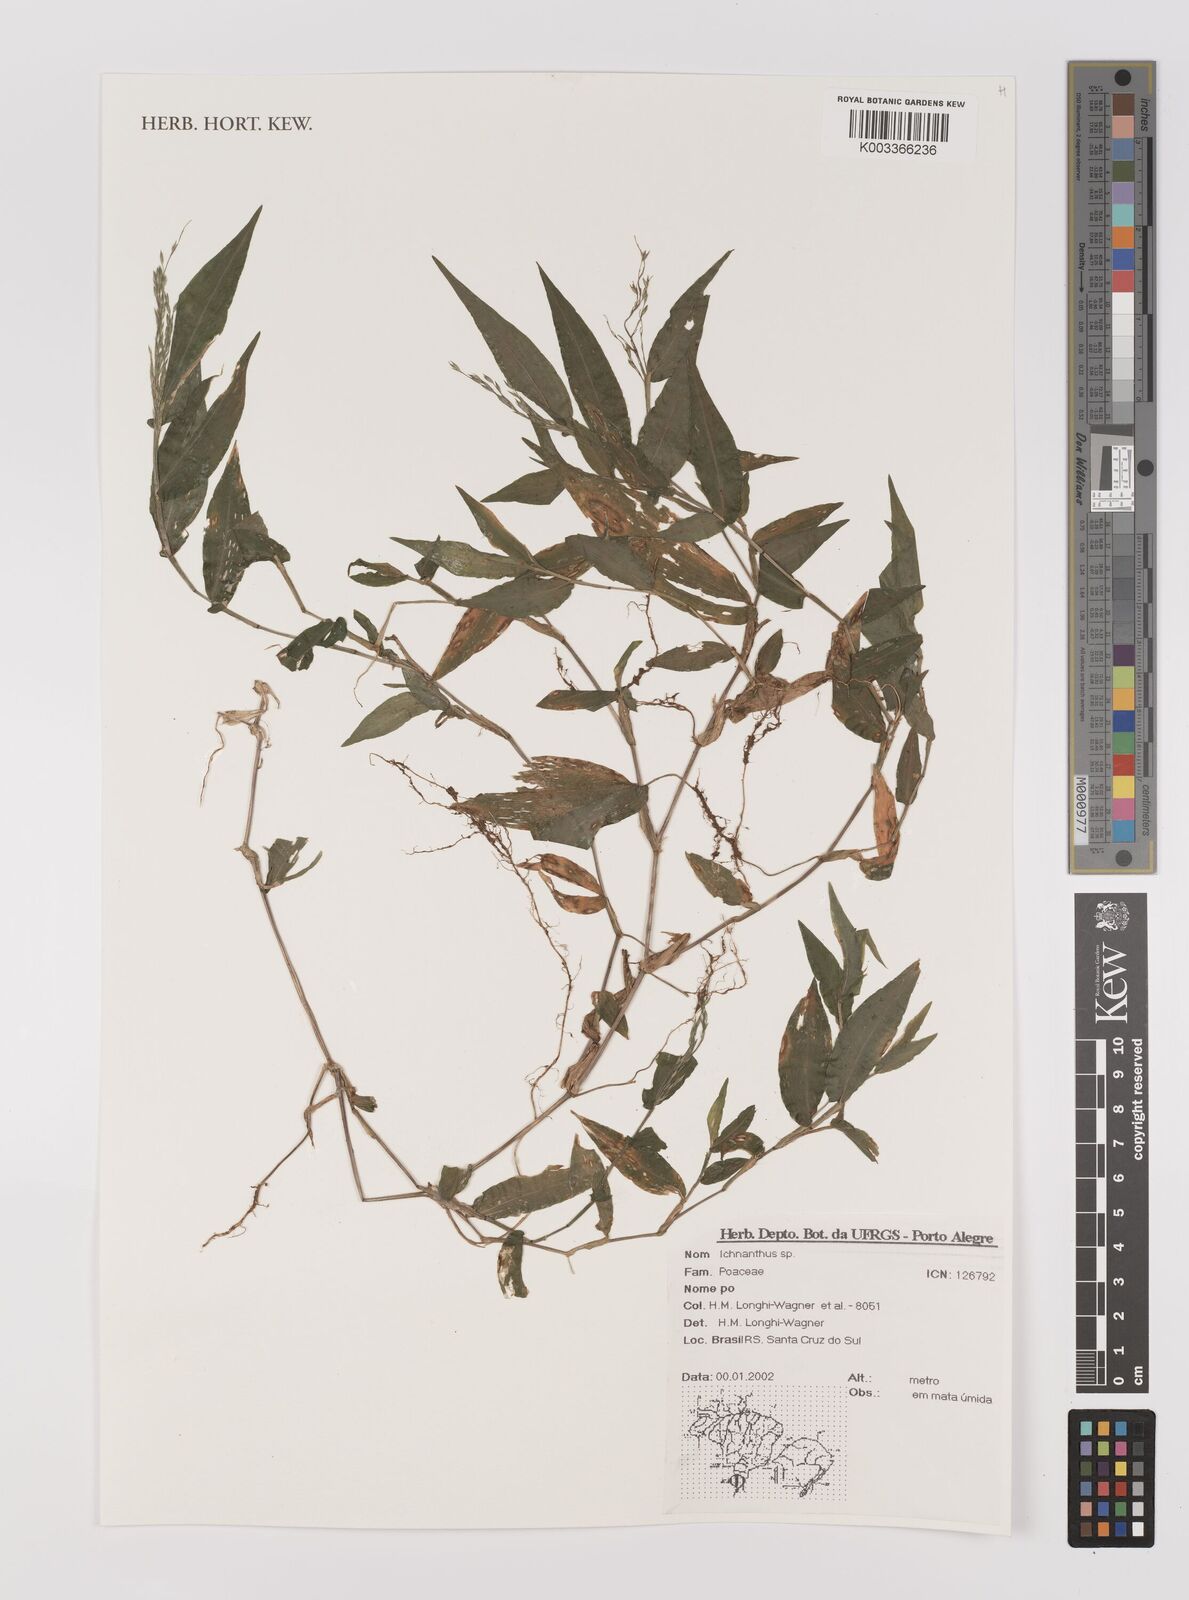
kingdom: Plantae
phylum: Tracheophyta
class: Liliopsida
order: Poales
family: Poaceae
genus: Ichnanthus
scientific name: Ichnanthus
